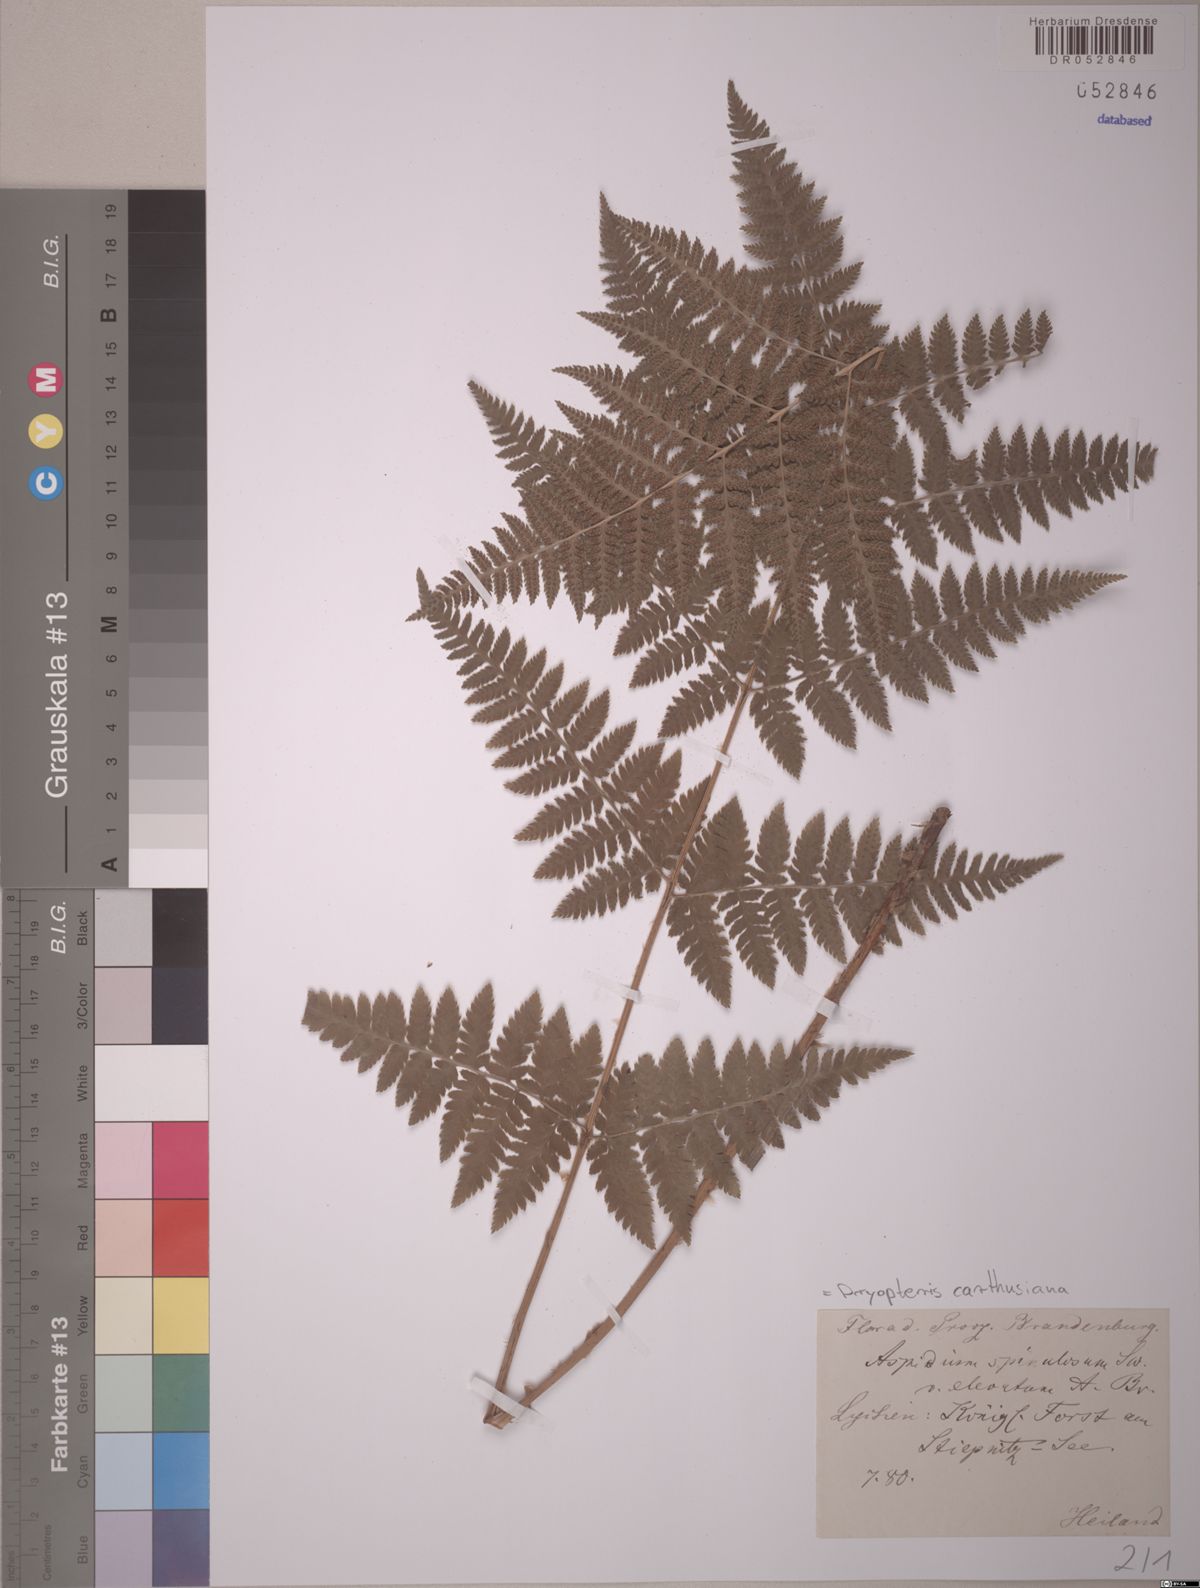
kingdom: Plantae
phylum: Tracheophyta
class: Polypodiopsida
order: Polypodiales
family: Dryopteridaceae
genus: Dryopteris
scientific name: Dryopteris carthusiana
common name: Narrow buckler-fern
